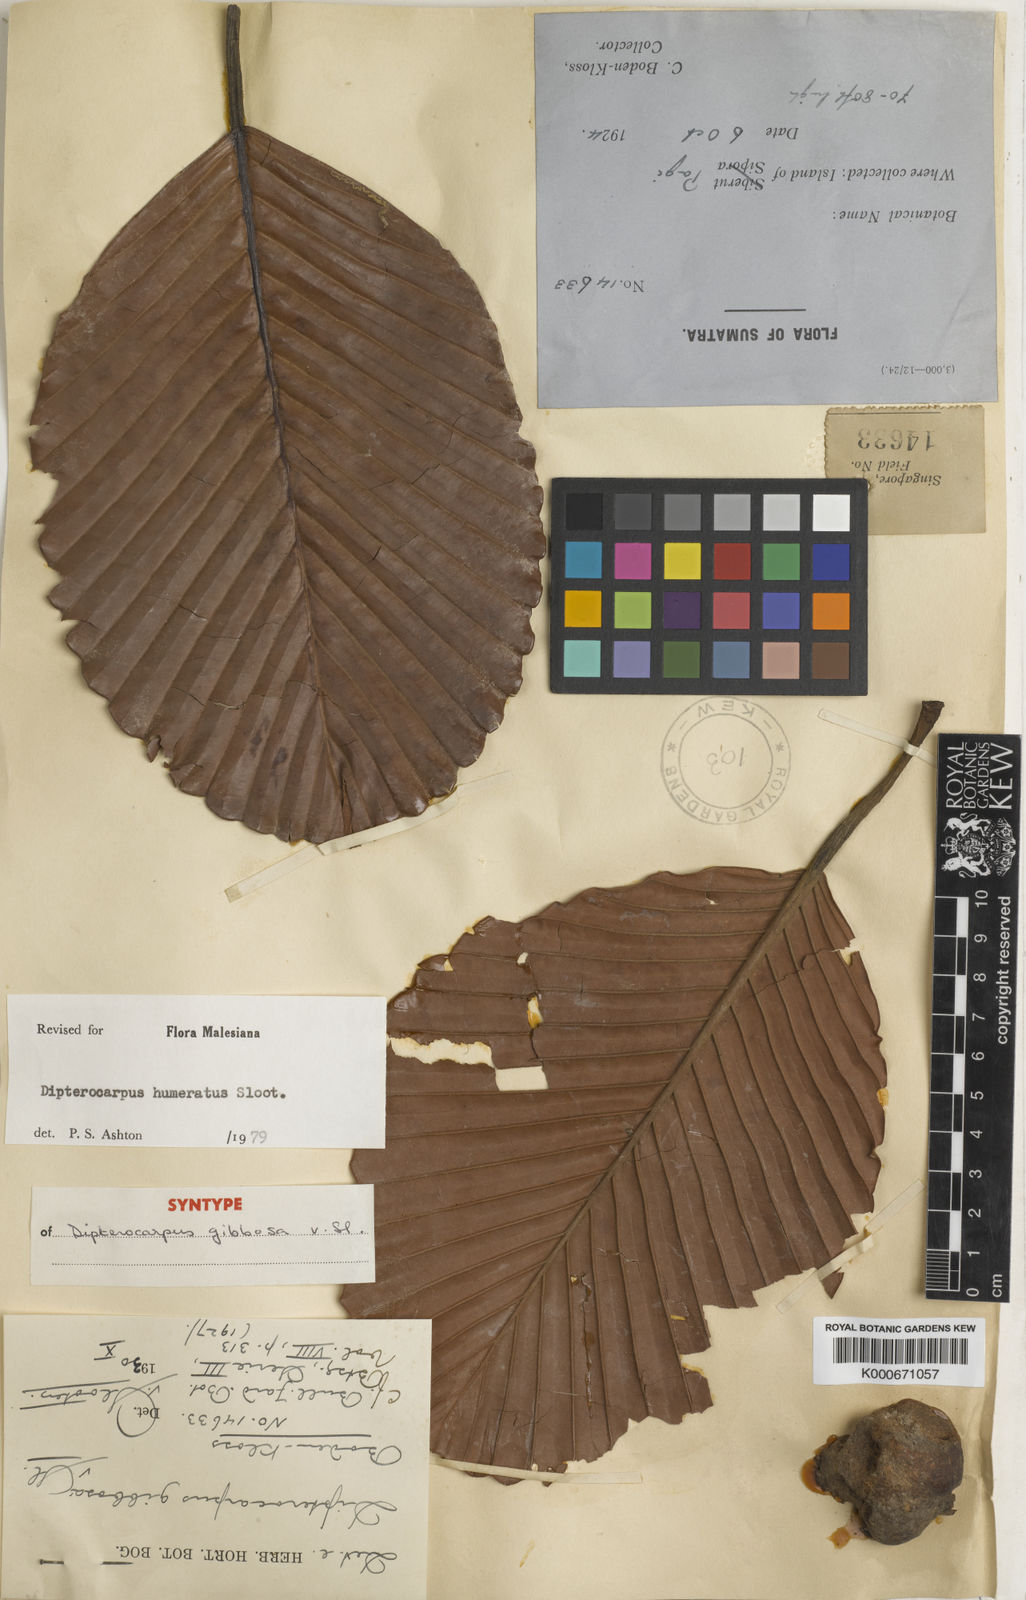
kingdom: Plantae
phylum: Tracheophyta
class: Magnoliopsida
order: Malvales
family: Dipterocarpaceae
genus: Dipterocarpus
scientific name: Dipterocarpus humeratus
